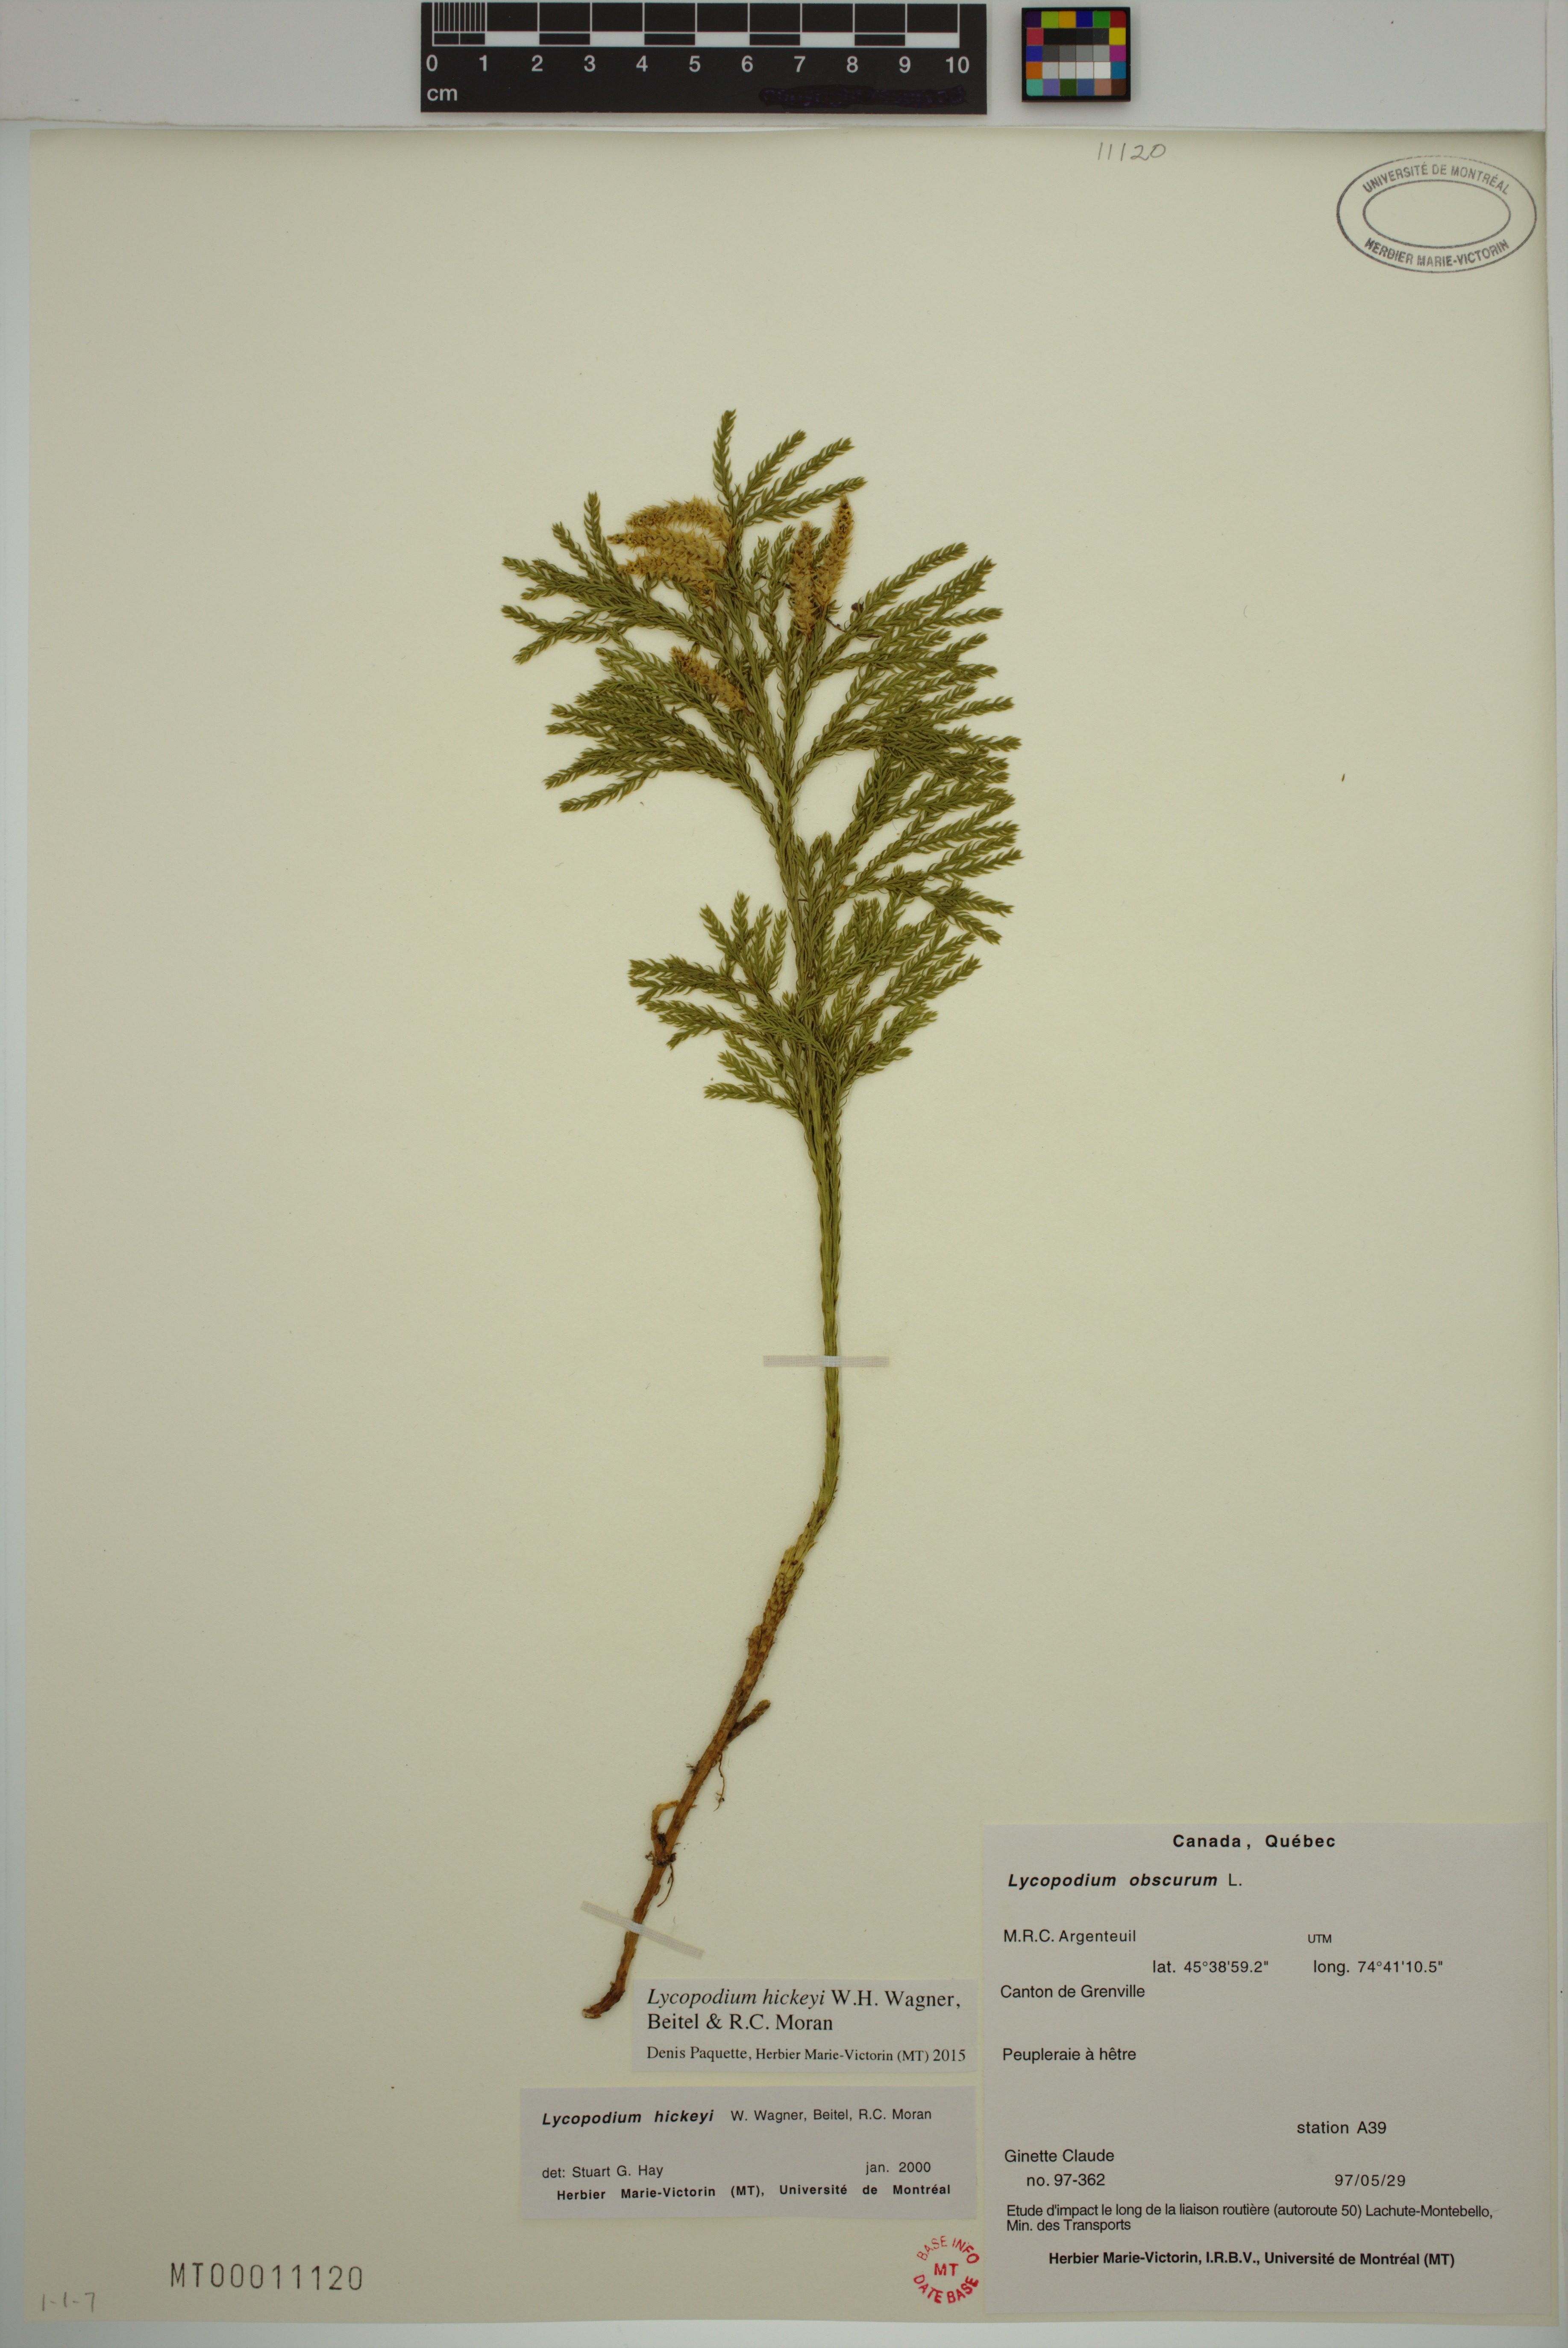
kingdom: Plantae
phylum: Tracheophyta
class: Lycopodiopsida
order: Lycopodiales
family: Lycopodiaceae
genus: Dendrolycopodium
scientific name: Dendrolycopodium hickeyi
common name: Hickey's clubmoss
